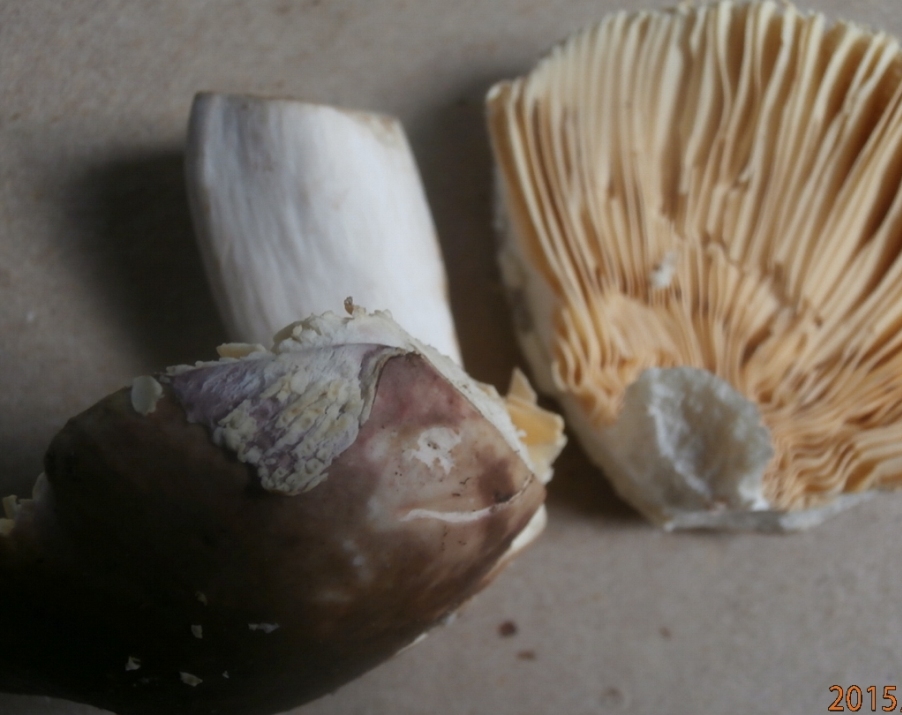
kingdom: Fungi
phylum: Basidiomycota
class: Agaricomycetes
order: Russulales
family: Russulaceae
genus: Russula
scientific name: Russula romellii
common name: romells skørhat
